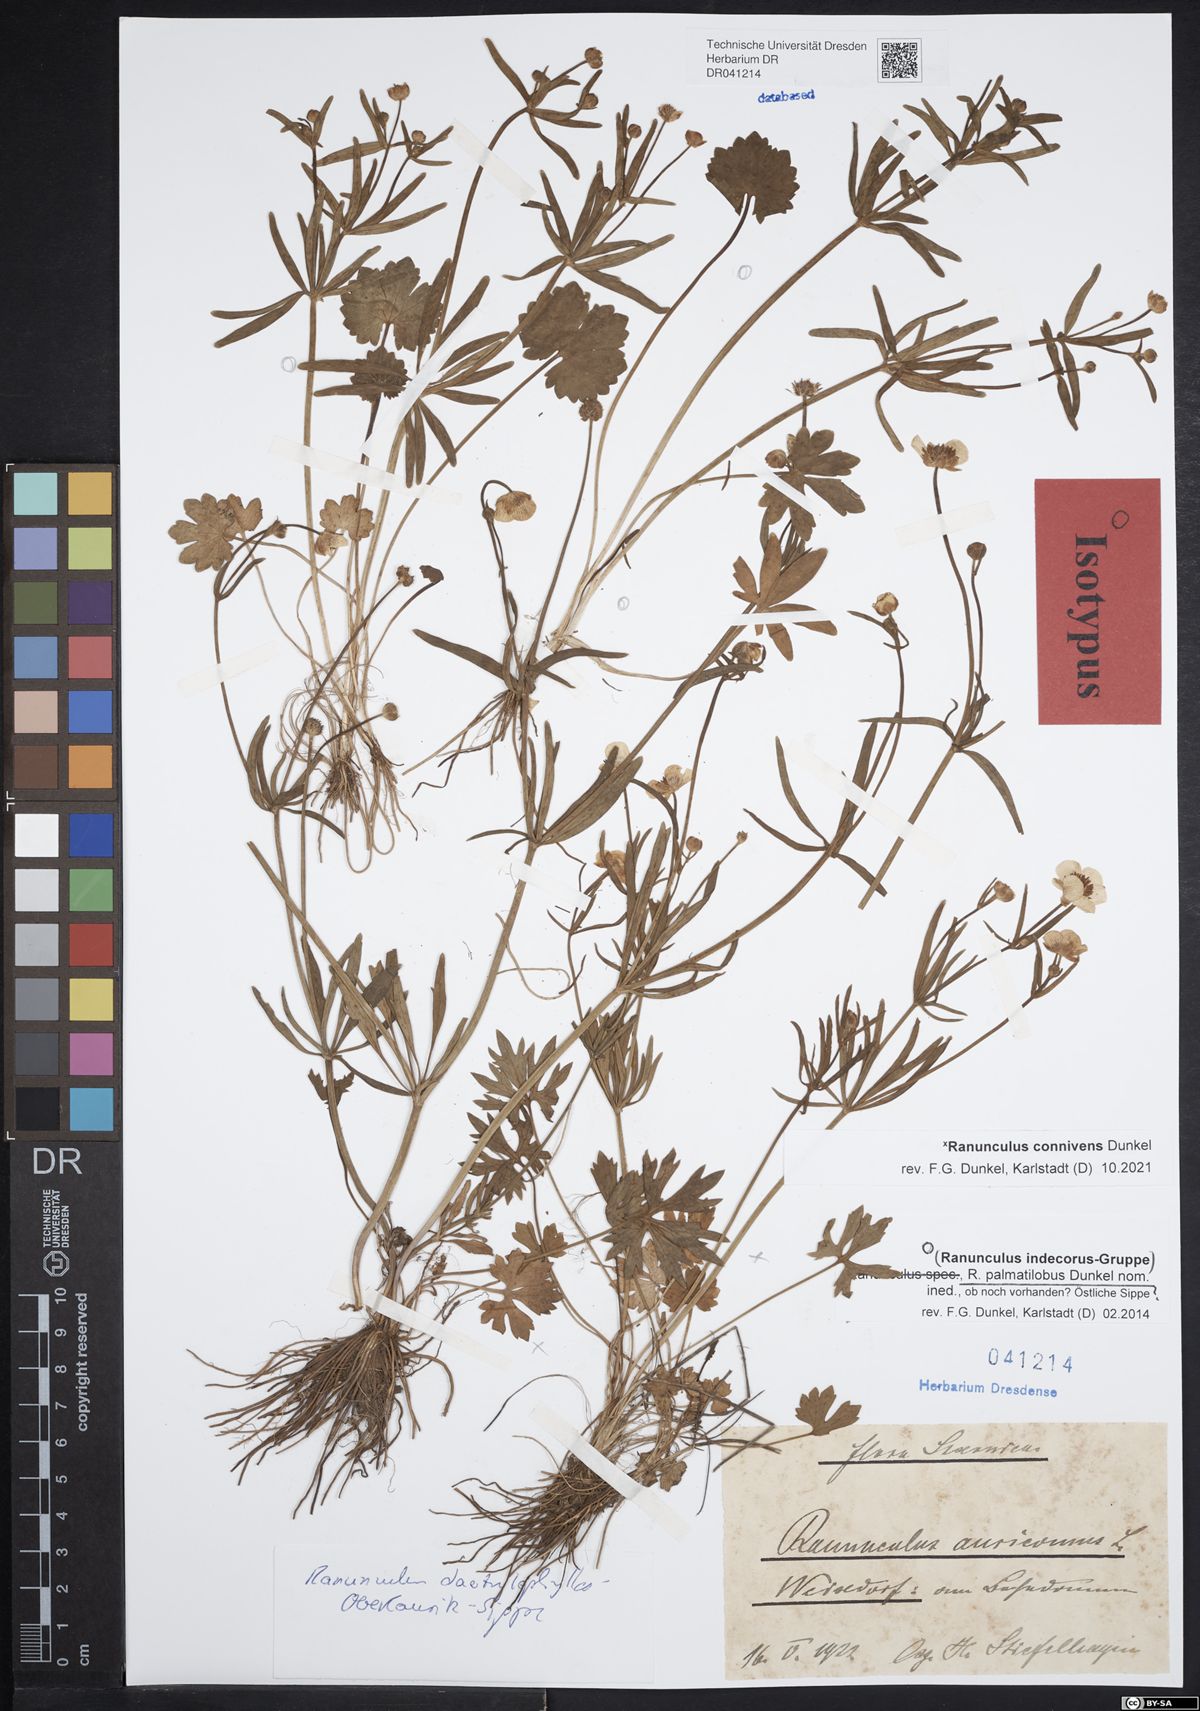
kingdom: Plantae
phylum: Tracheophyta
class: Magnoliopsida
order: Ranunculales
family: Ranunculaceae
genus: Ranunculus
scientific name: Ranunculus palmatilobus
